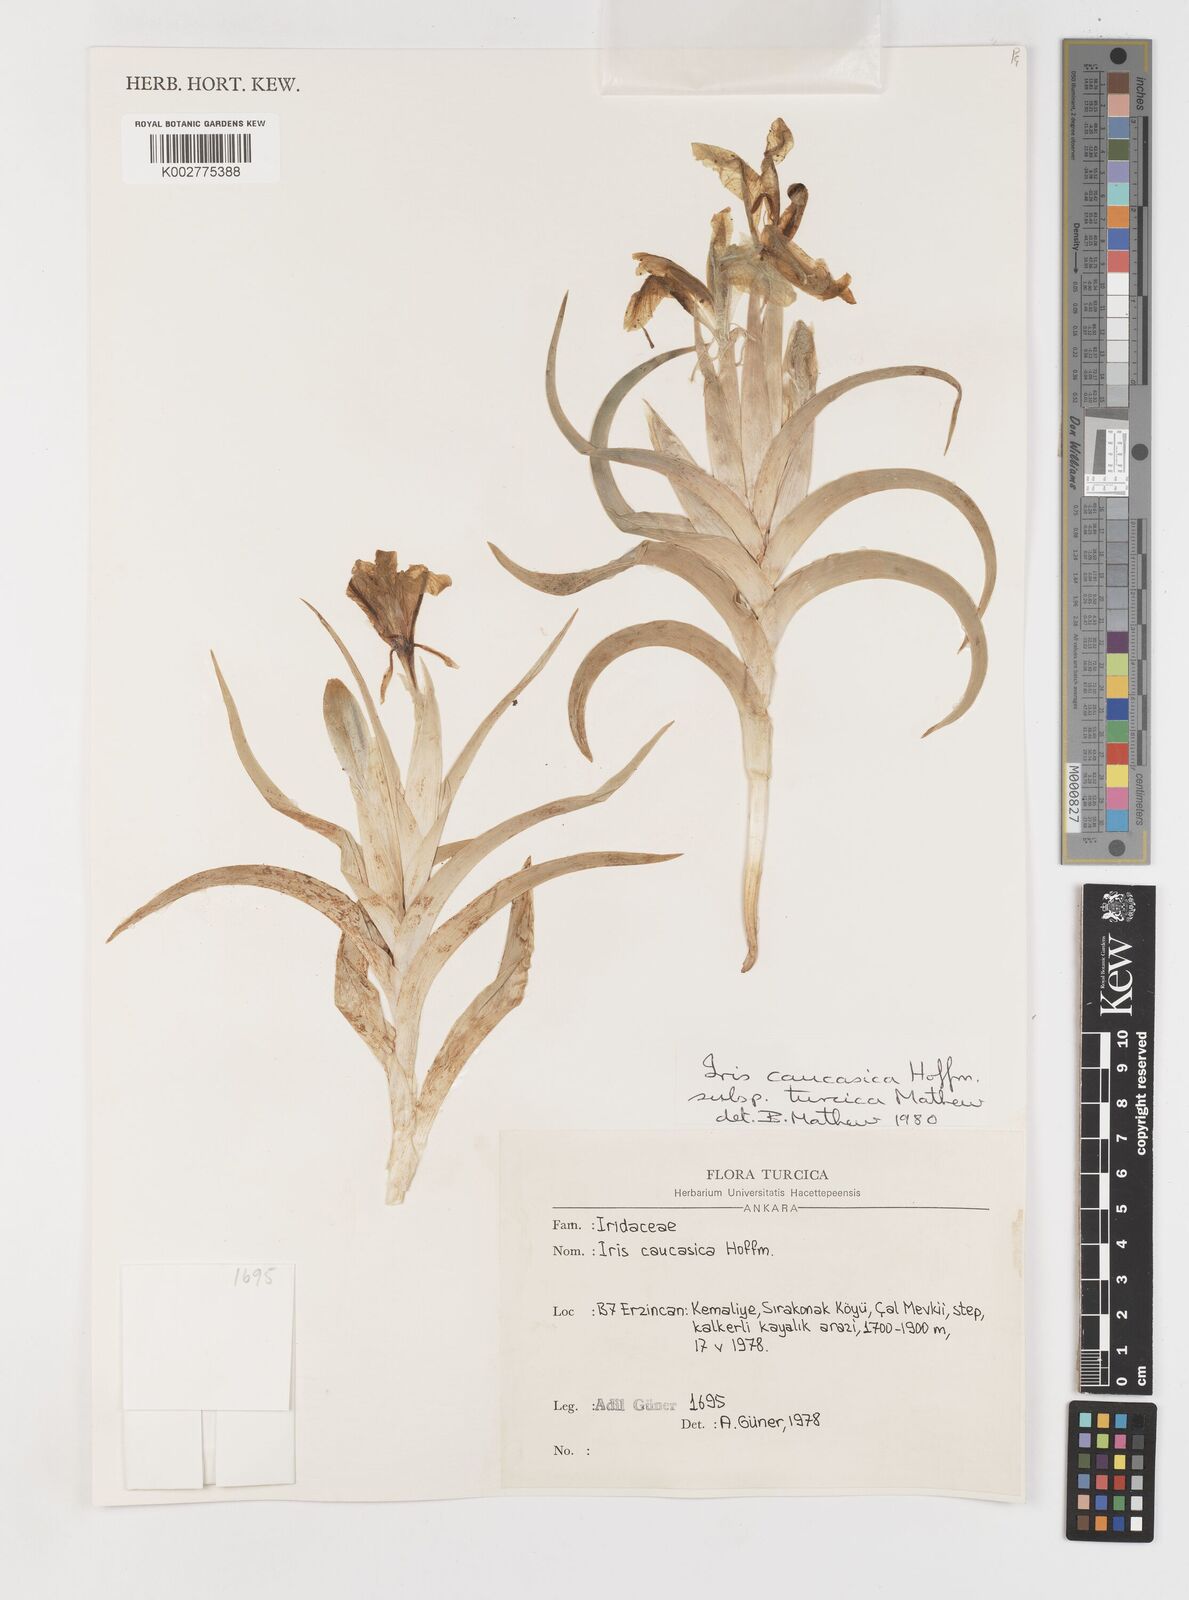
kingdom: Plantae
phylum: Tracheophyta
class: Liliopsida
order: Asparagales
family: Iridaceae
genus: Iris
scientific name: Iris caucasica
